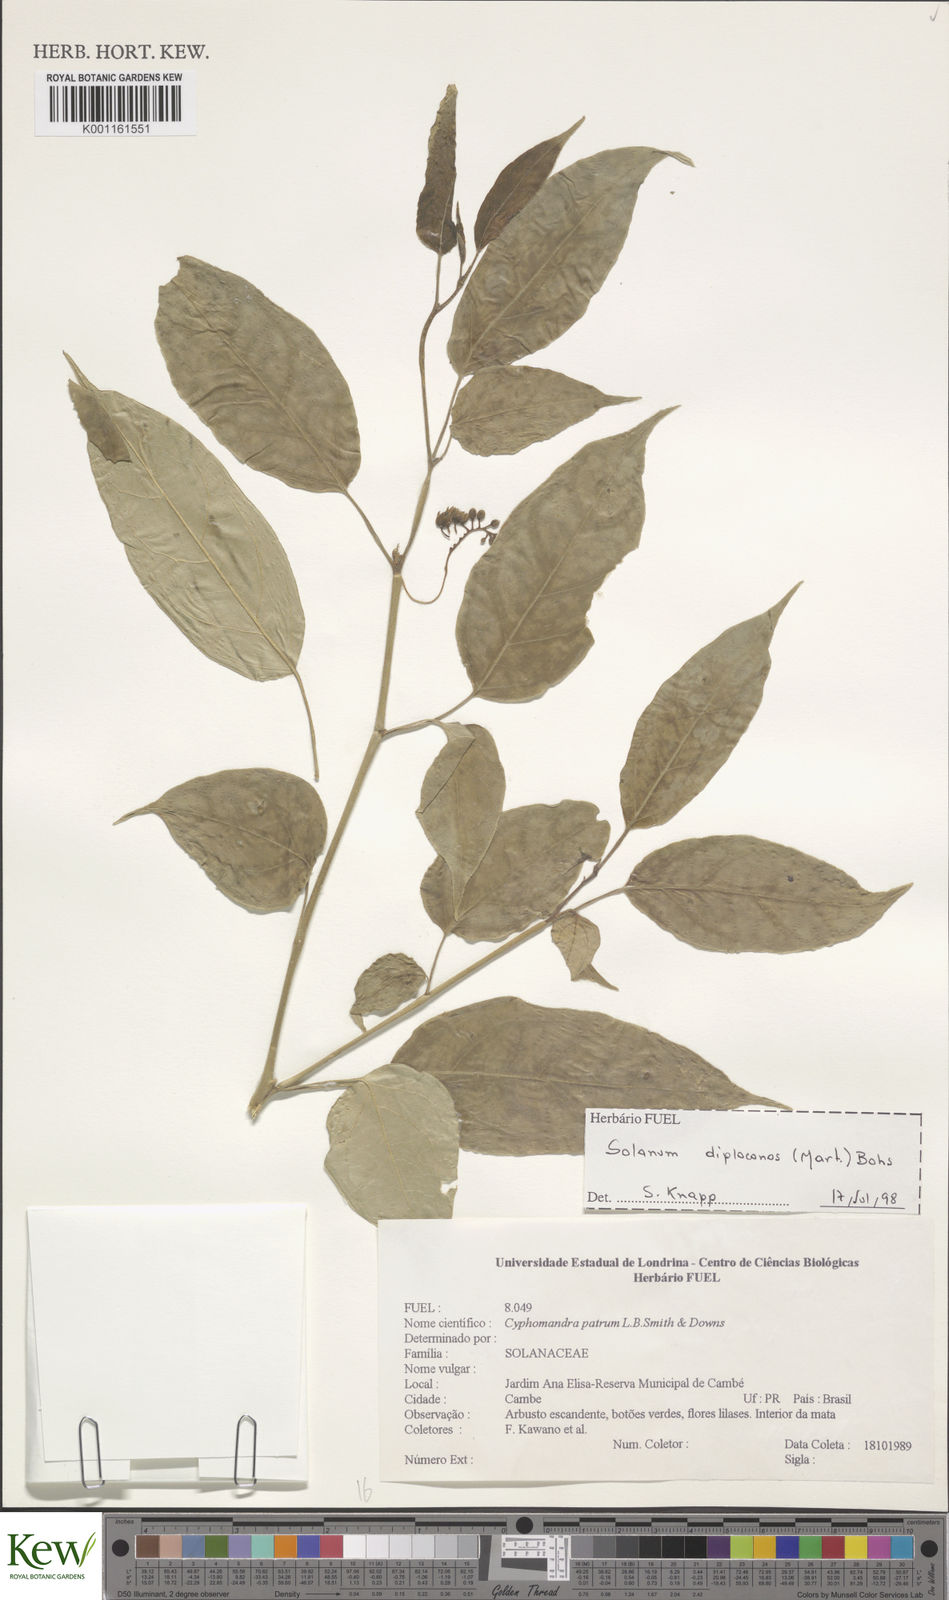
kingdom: Plantae
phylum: Tracheophyta
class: Magnoliopsida
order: Solanales
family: Solanaceae
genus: Solanum
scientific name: Solanum diploconos
